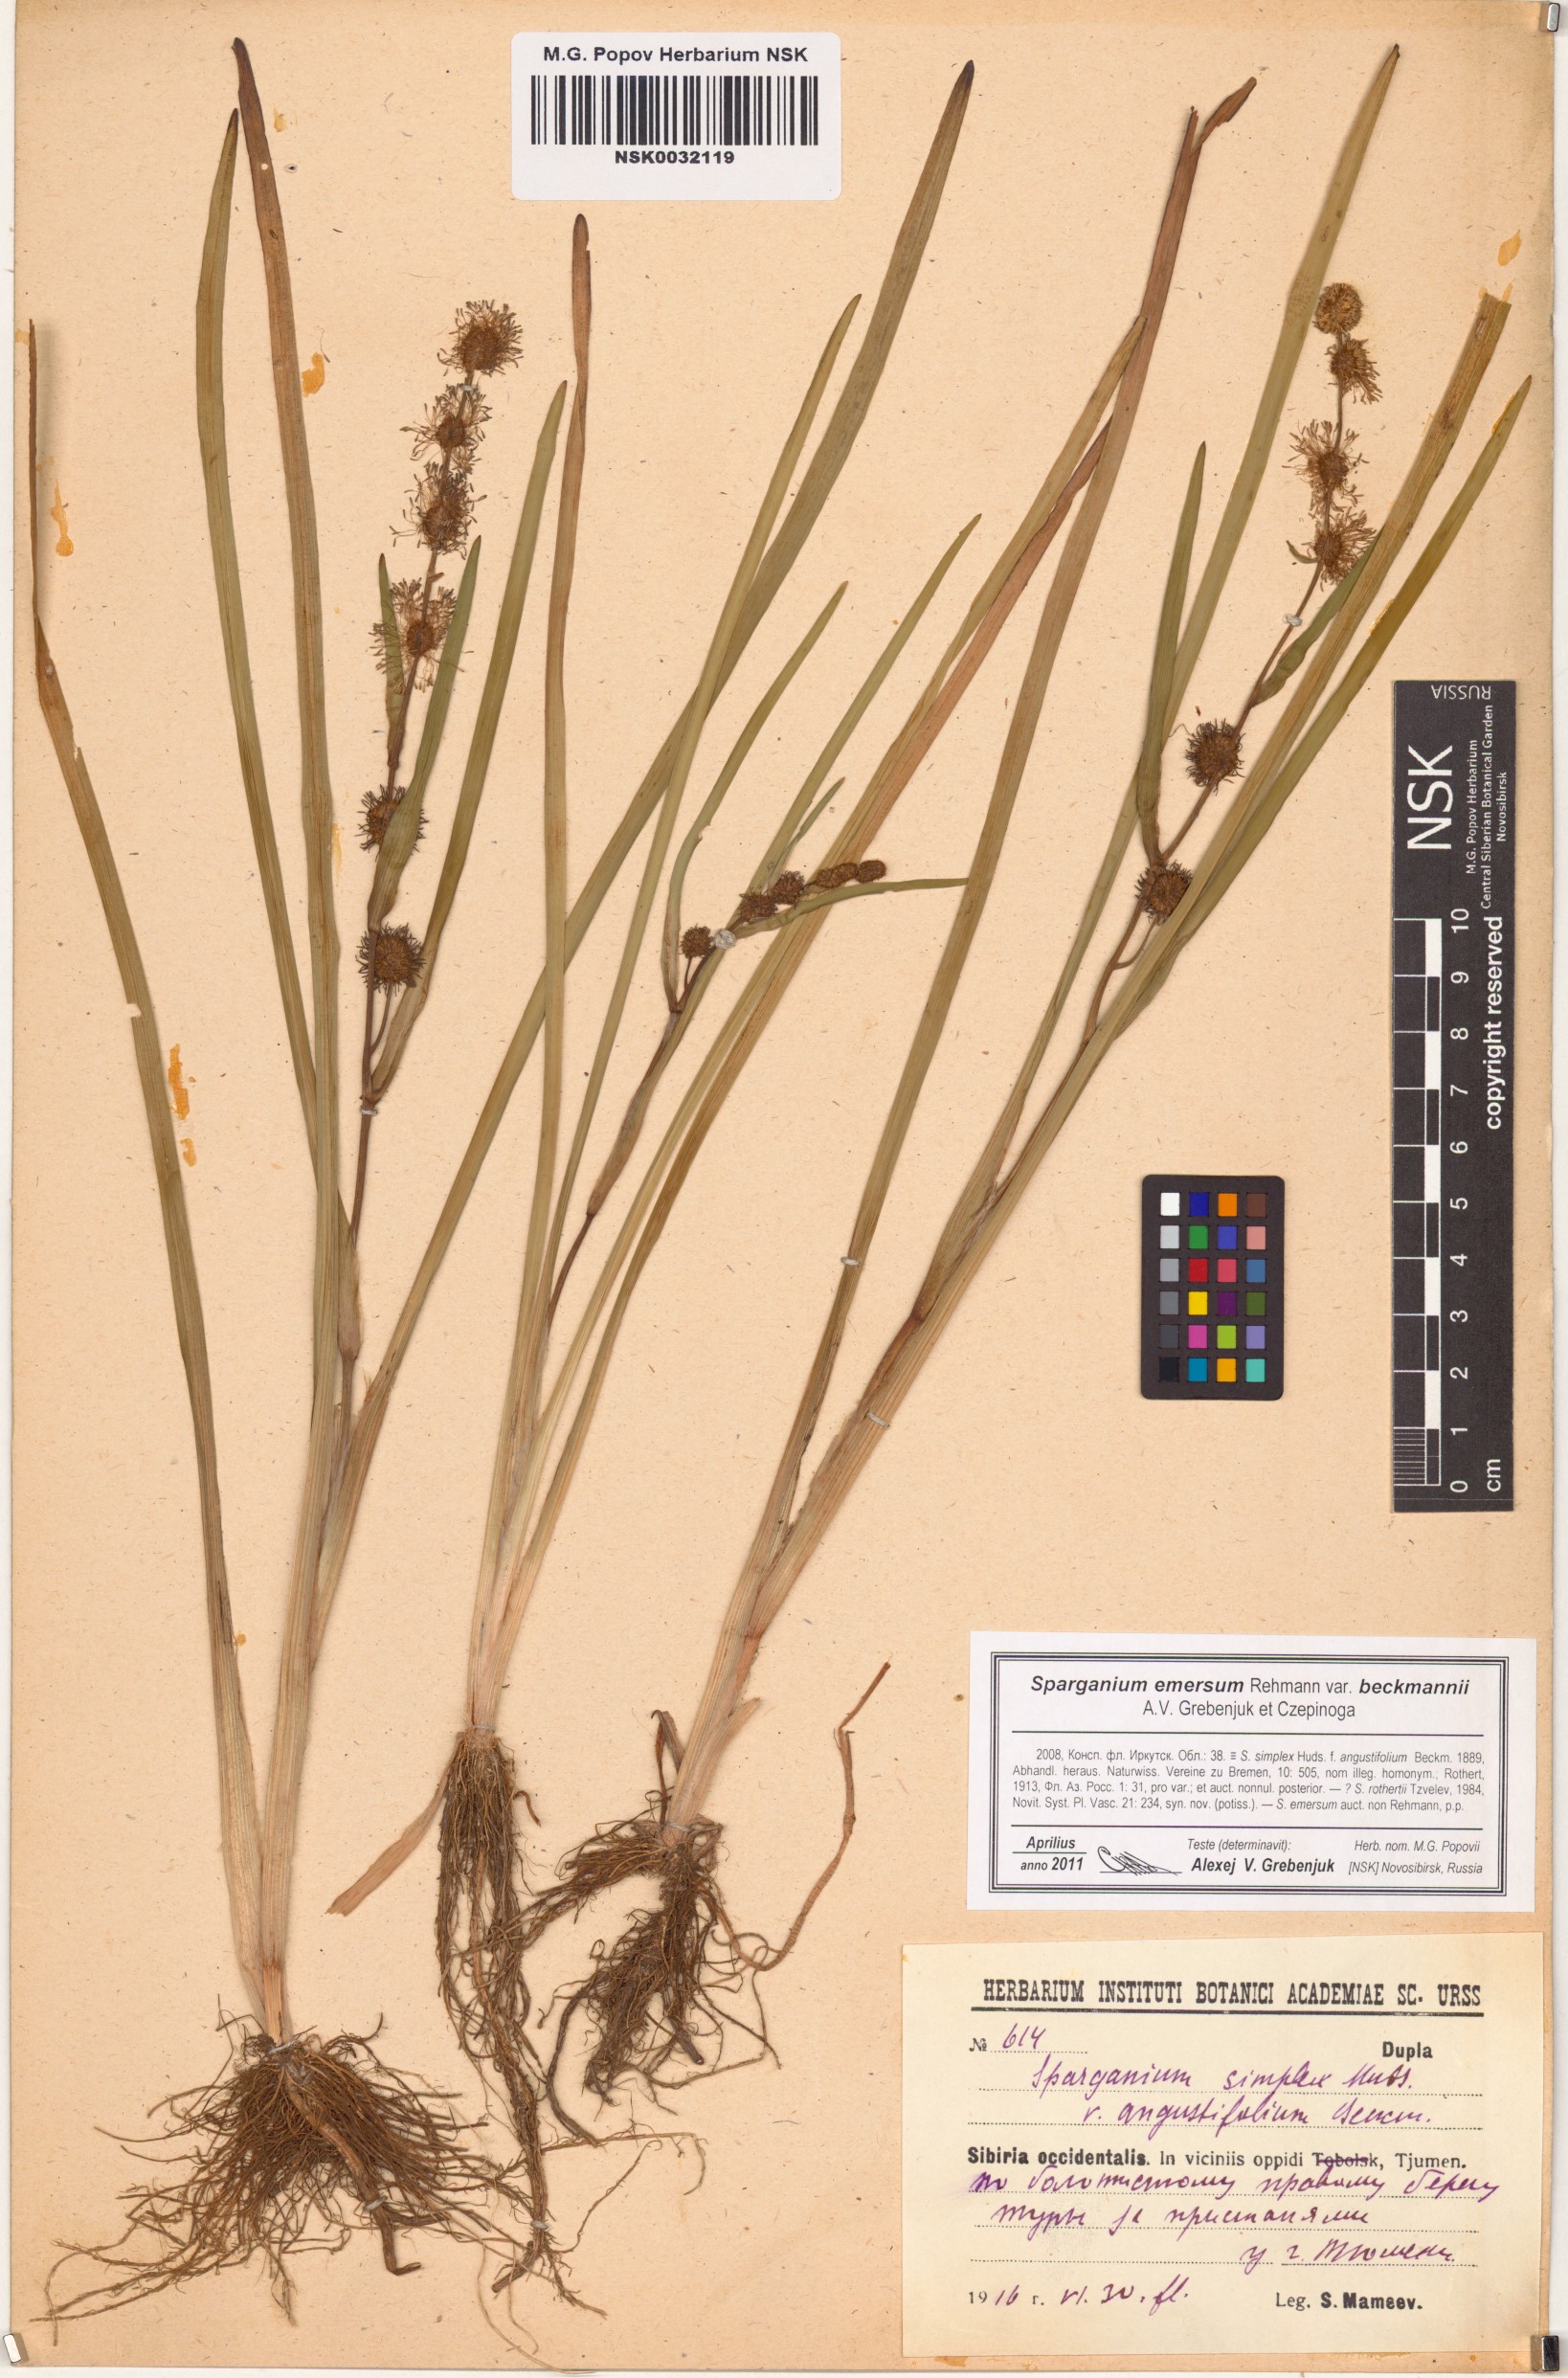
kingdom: Plantae
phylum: Tracheophyta
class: Liliopsida
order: Poales
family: Typhaceae
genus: Sparganium
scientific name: Sparganium emersum
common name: Unbranched bur-reed
